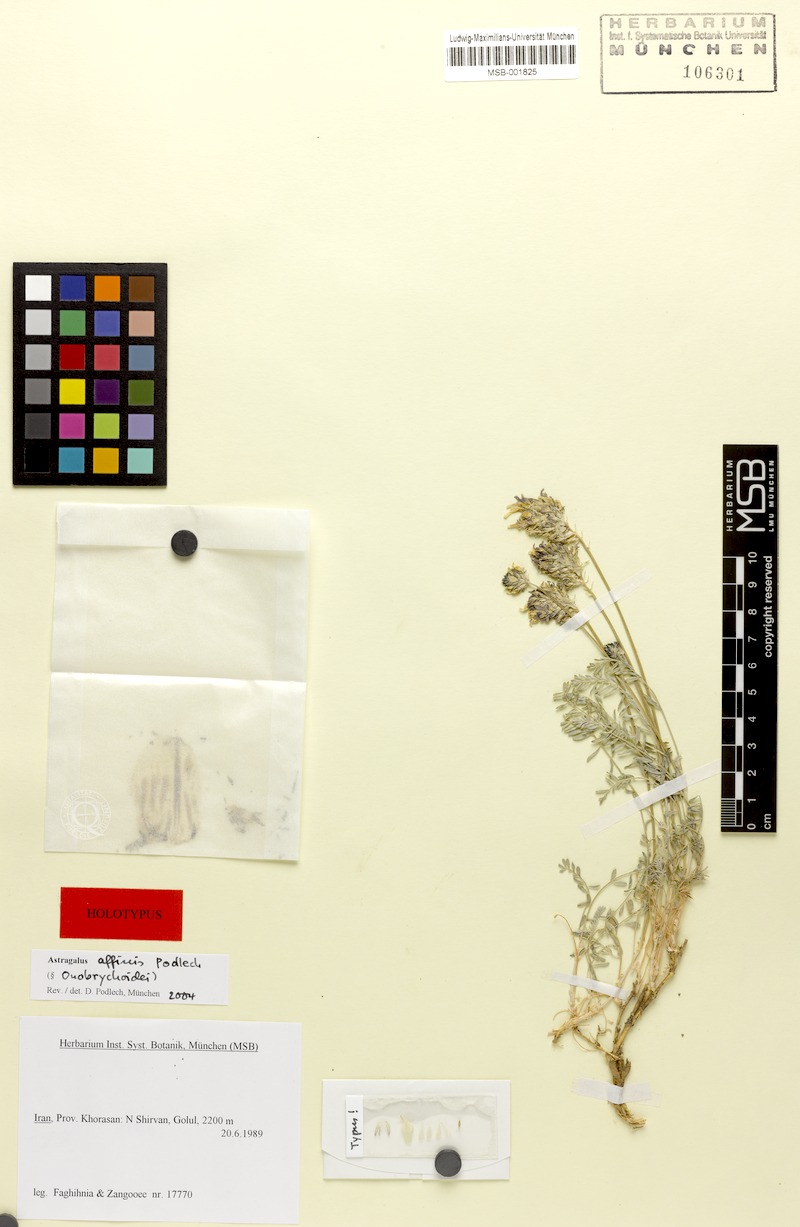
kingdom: Plantae
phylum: Tracheophyta
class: Magnoliopsida
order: Fabales
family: Fabaceae
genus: Astragalus
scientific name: Astragalus affinis
